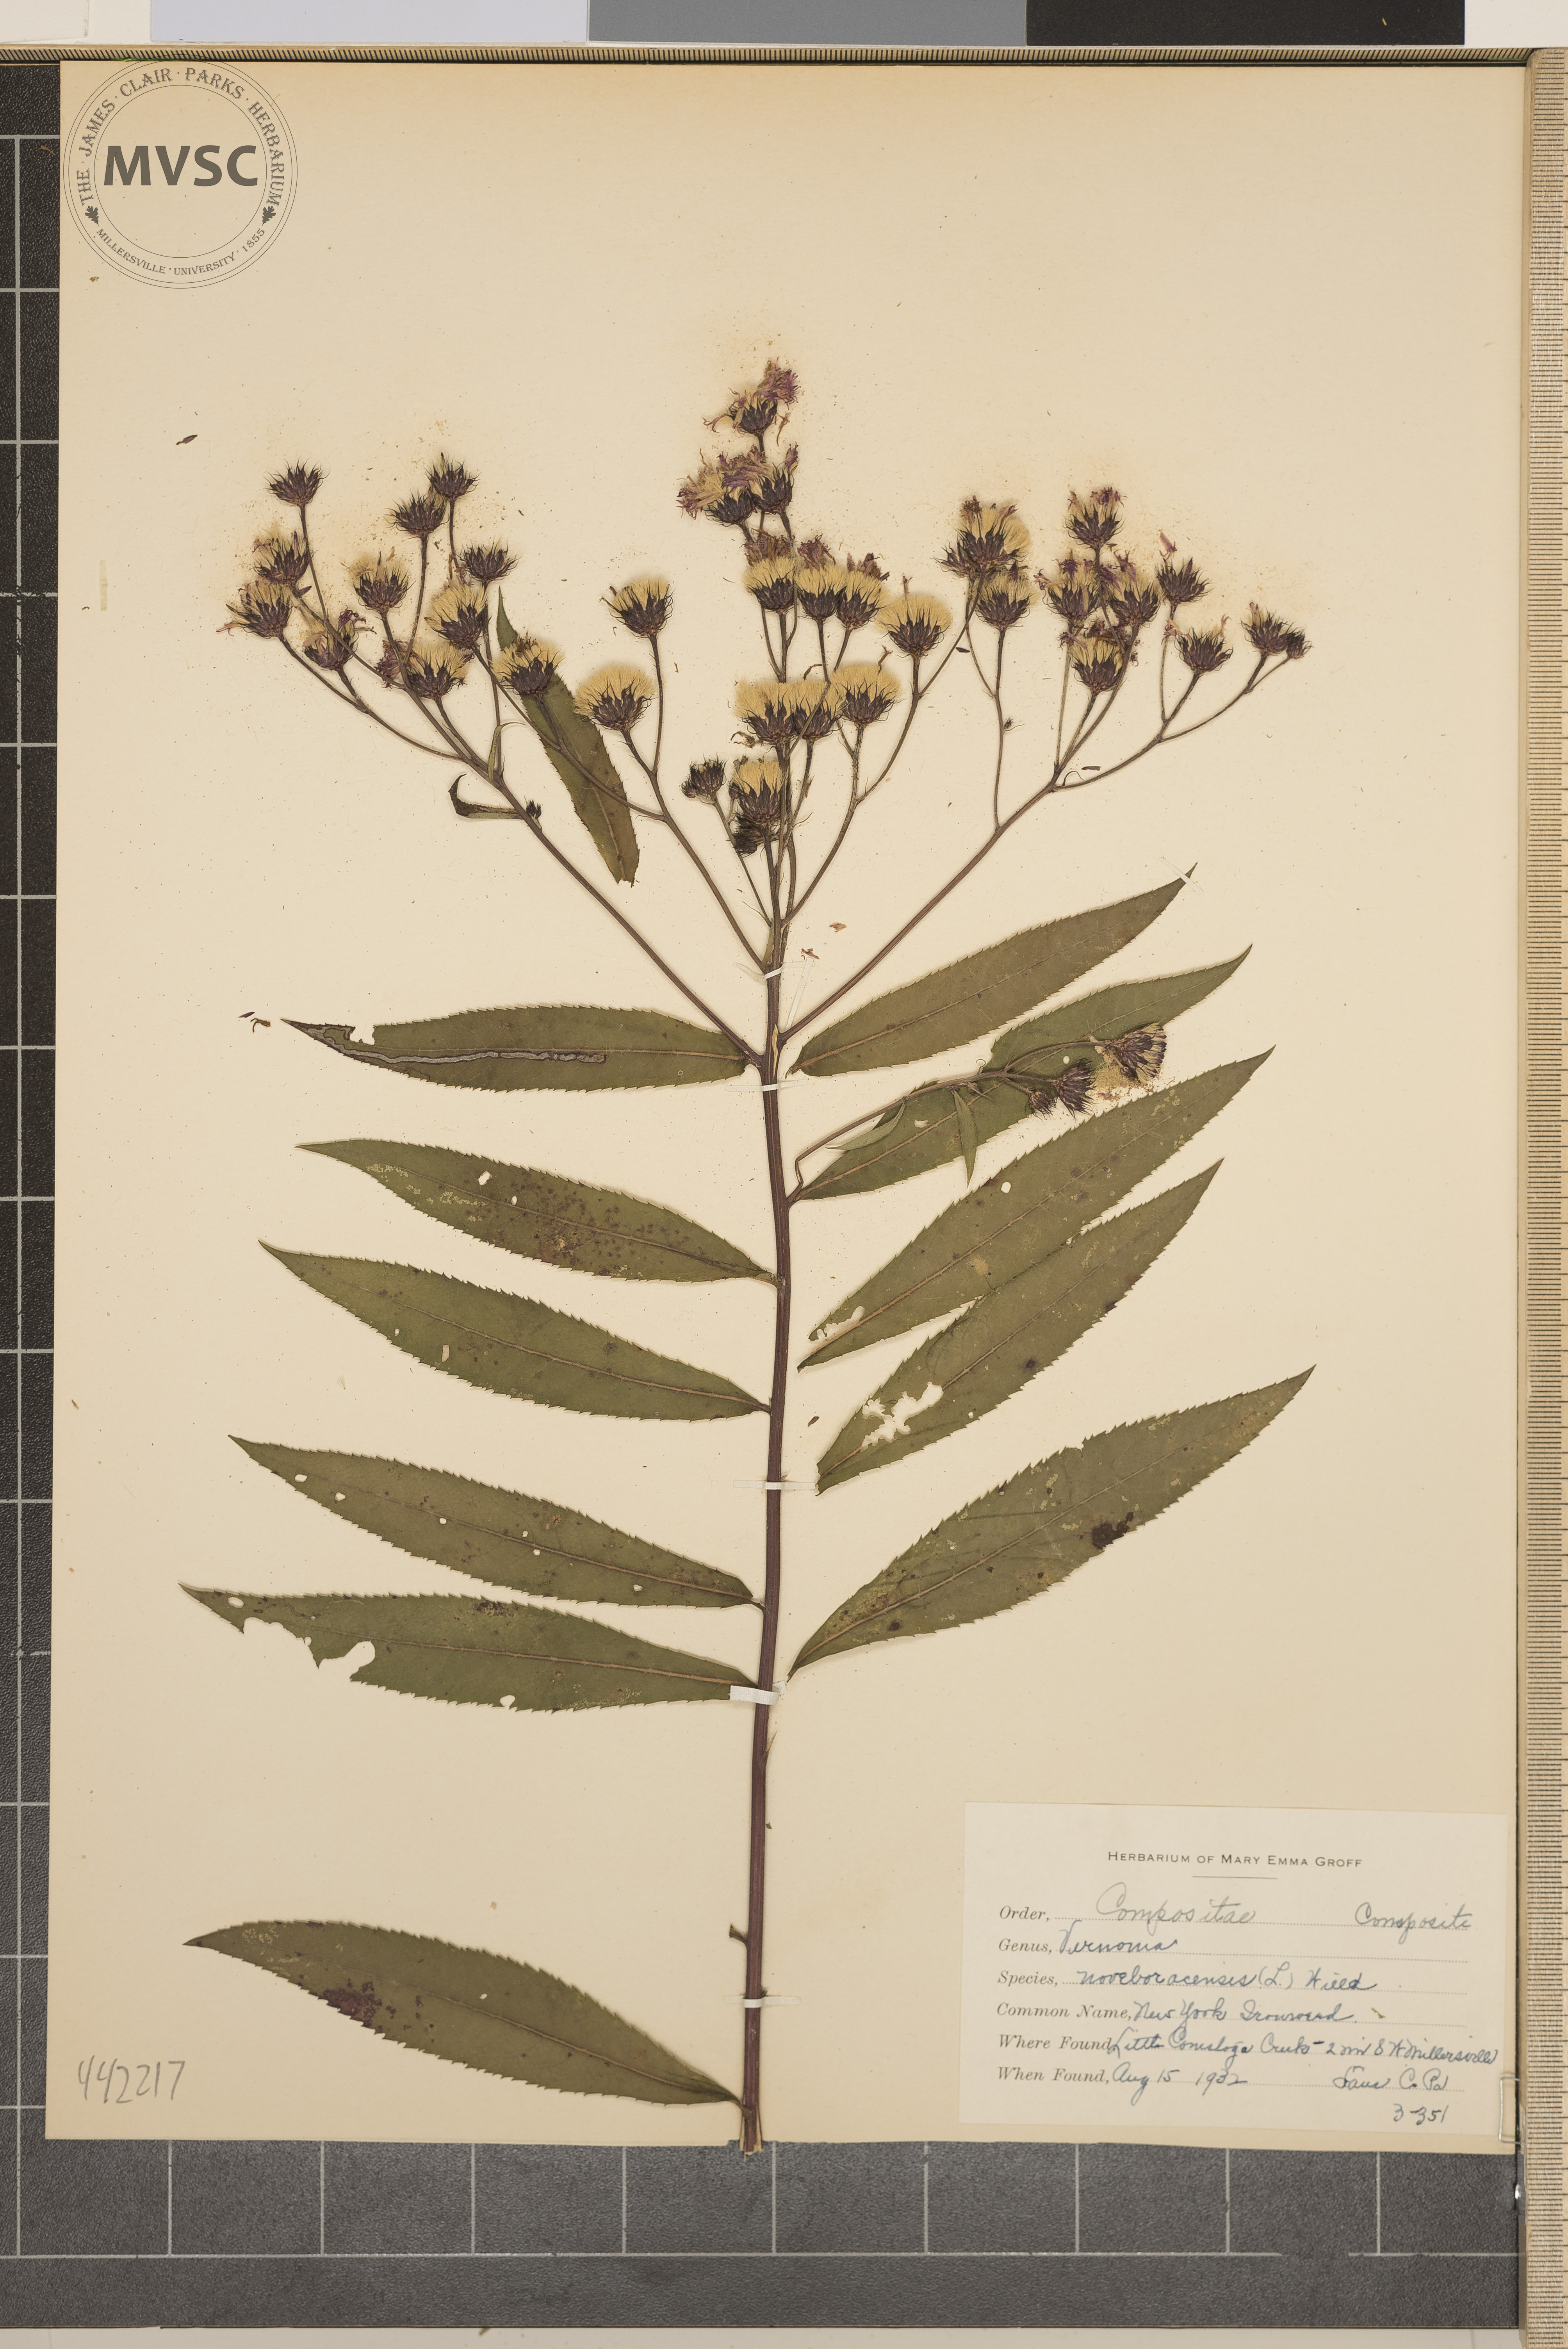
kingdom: Plantae
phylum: Tracheophyta
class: Magnoliopsida
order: Asterales
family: Asteraceae
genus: Vernonia
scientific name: Vernonia noveboracensis
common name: New York Ironweed
